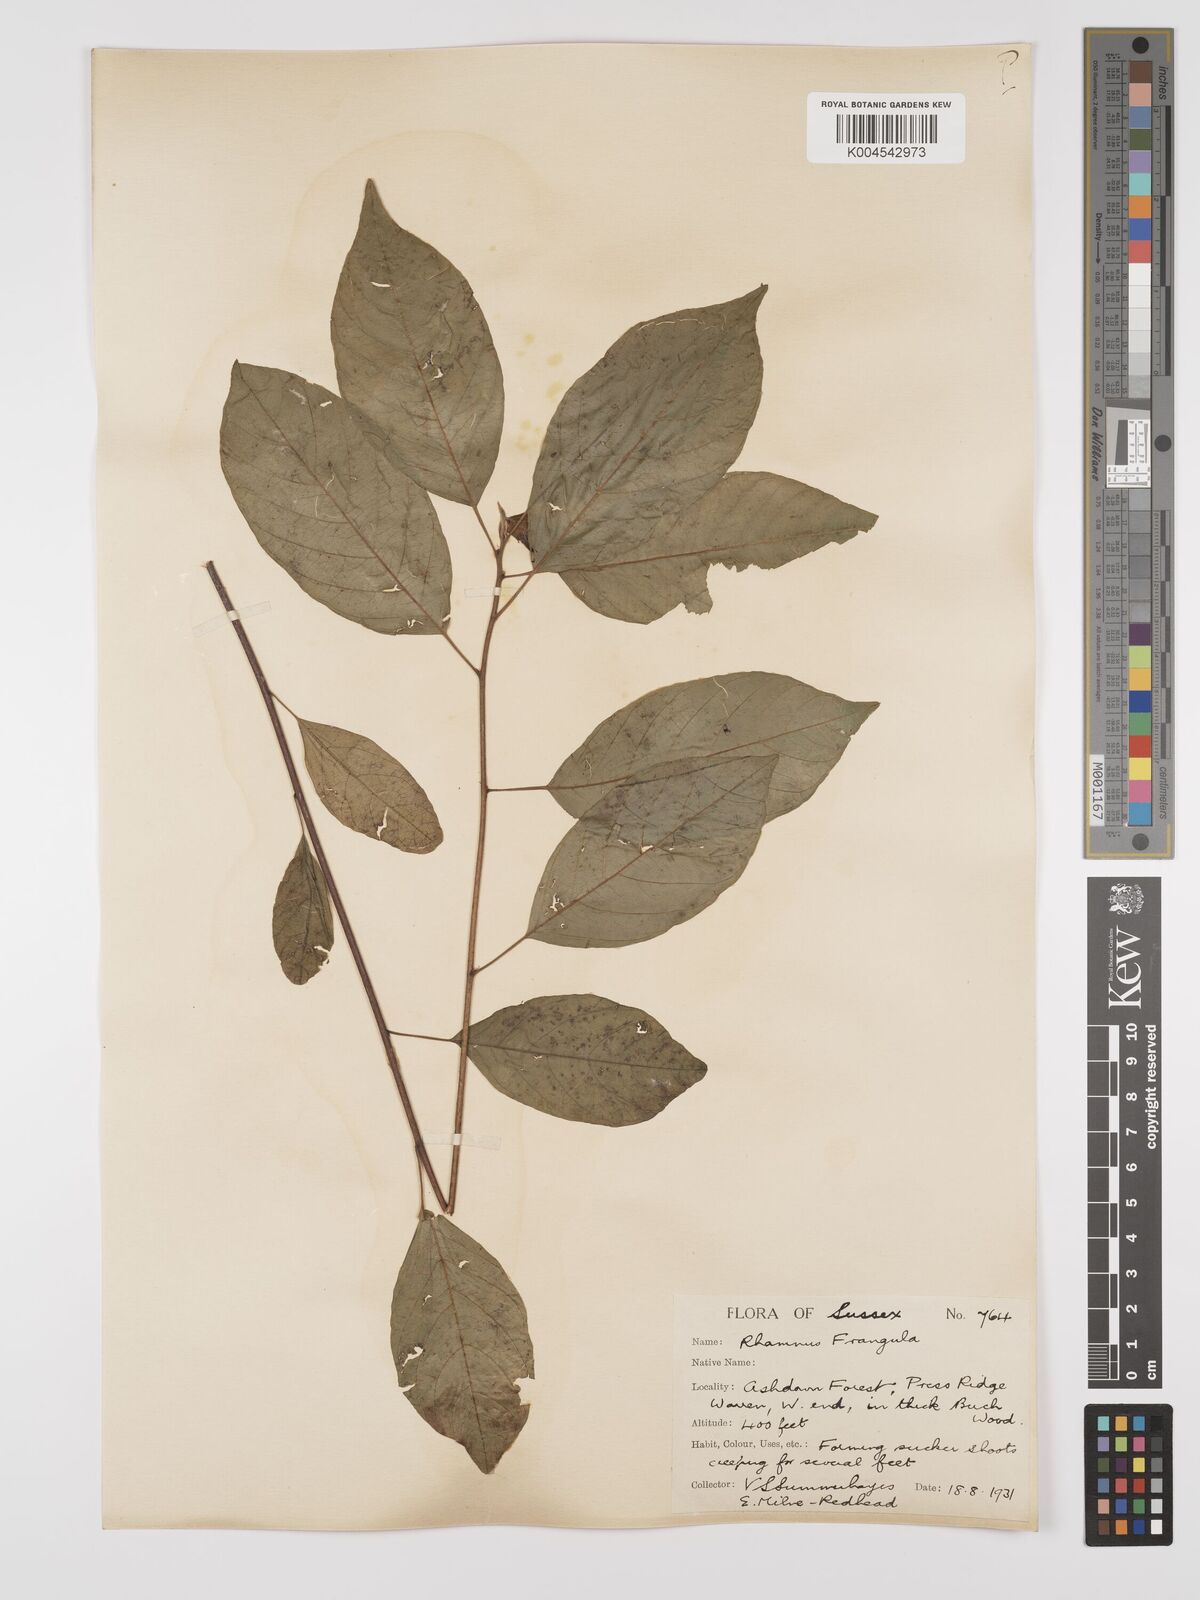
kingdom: Plantae
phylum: Tracheophyta
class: Magnoliopsida
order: Rosales
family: Rhamnaceae
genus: Frangula
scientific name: Frangula alnus
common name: Alder buckthorn
